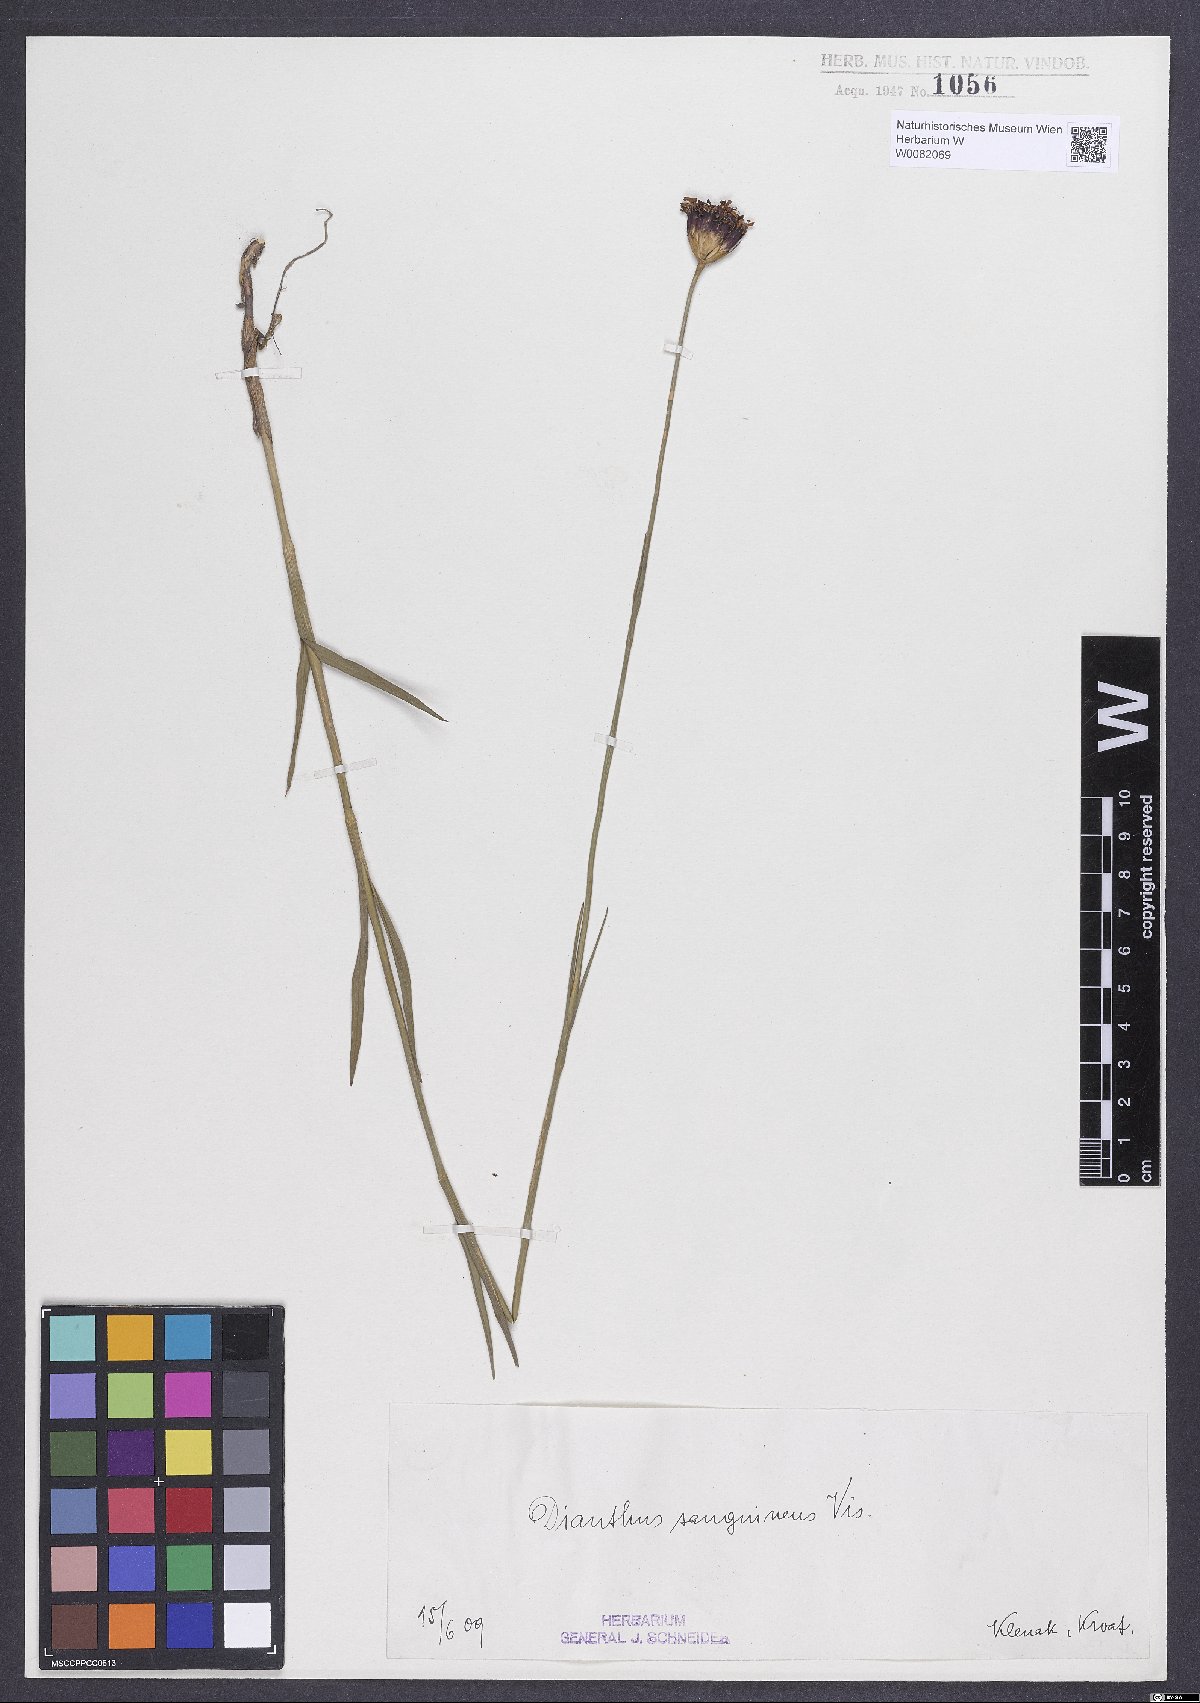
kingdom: Plantae
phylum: Tracheophyta
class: Magnoliopsida
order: Caryophyllales
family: Caryophyllaceae
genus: Dianthus
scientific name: Dianthus carthusianorum
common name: Carthusian pink
